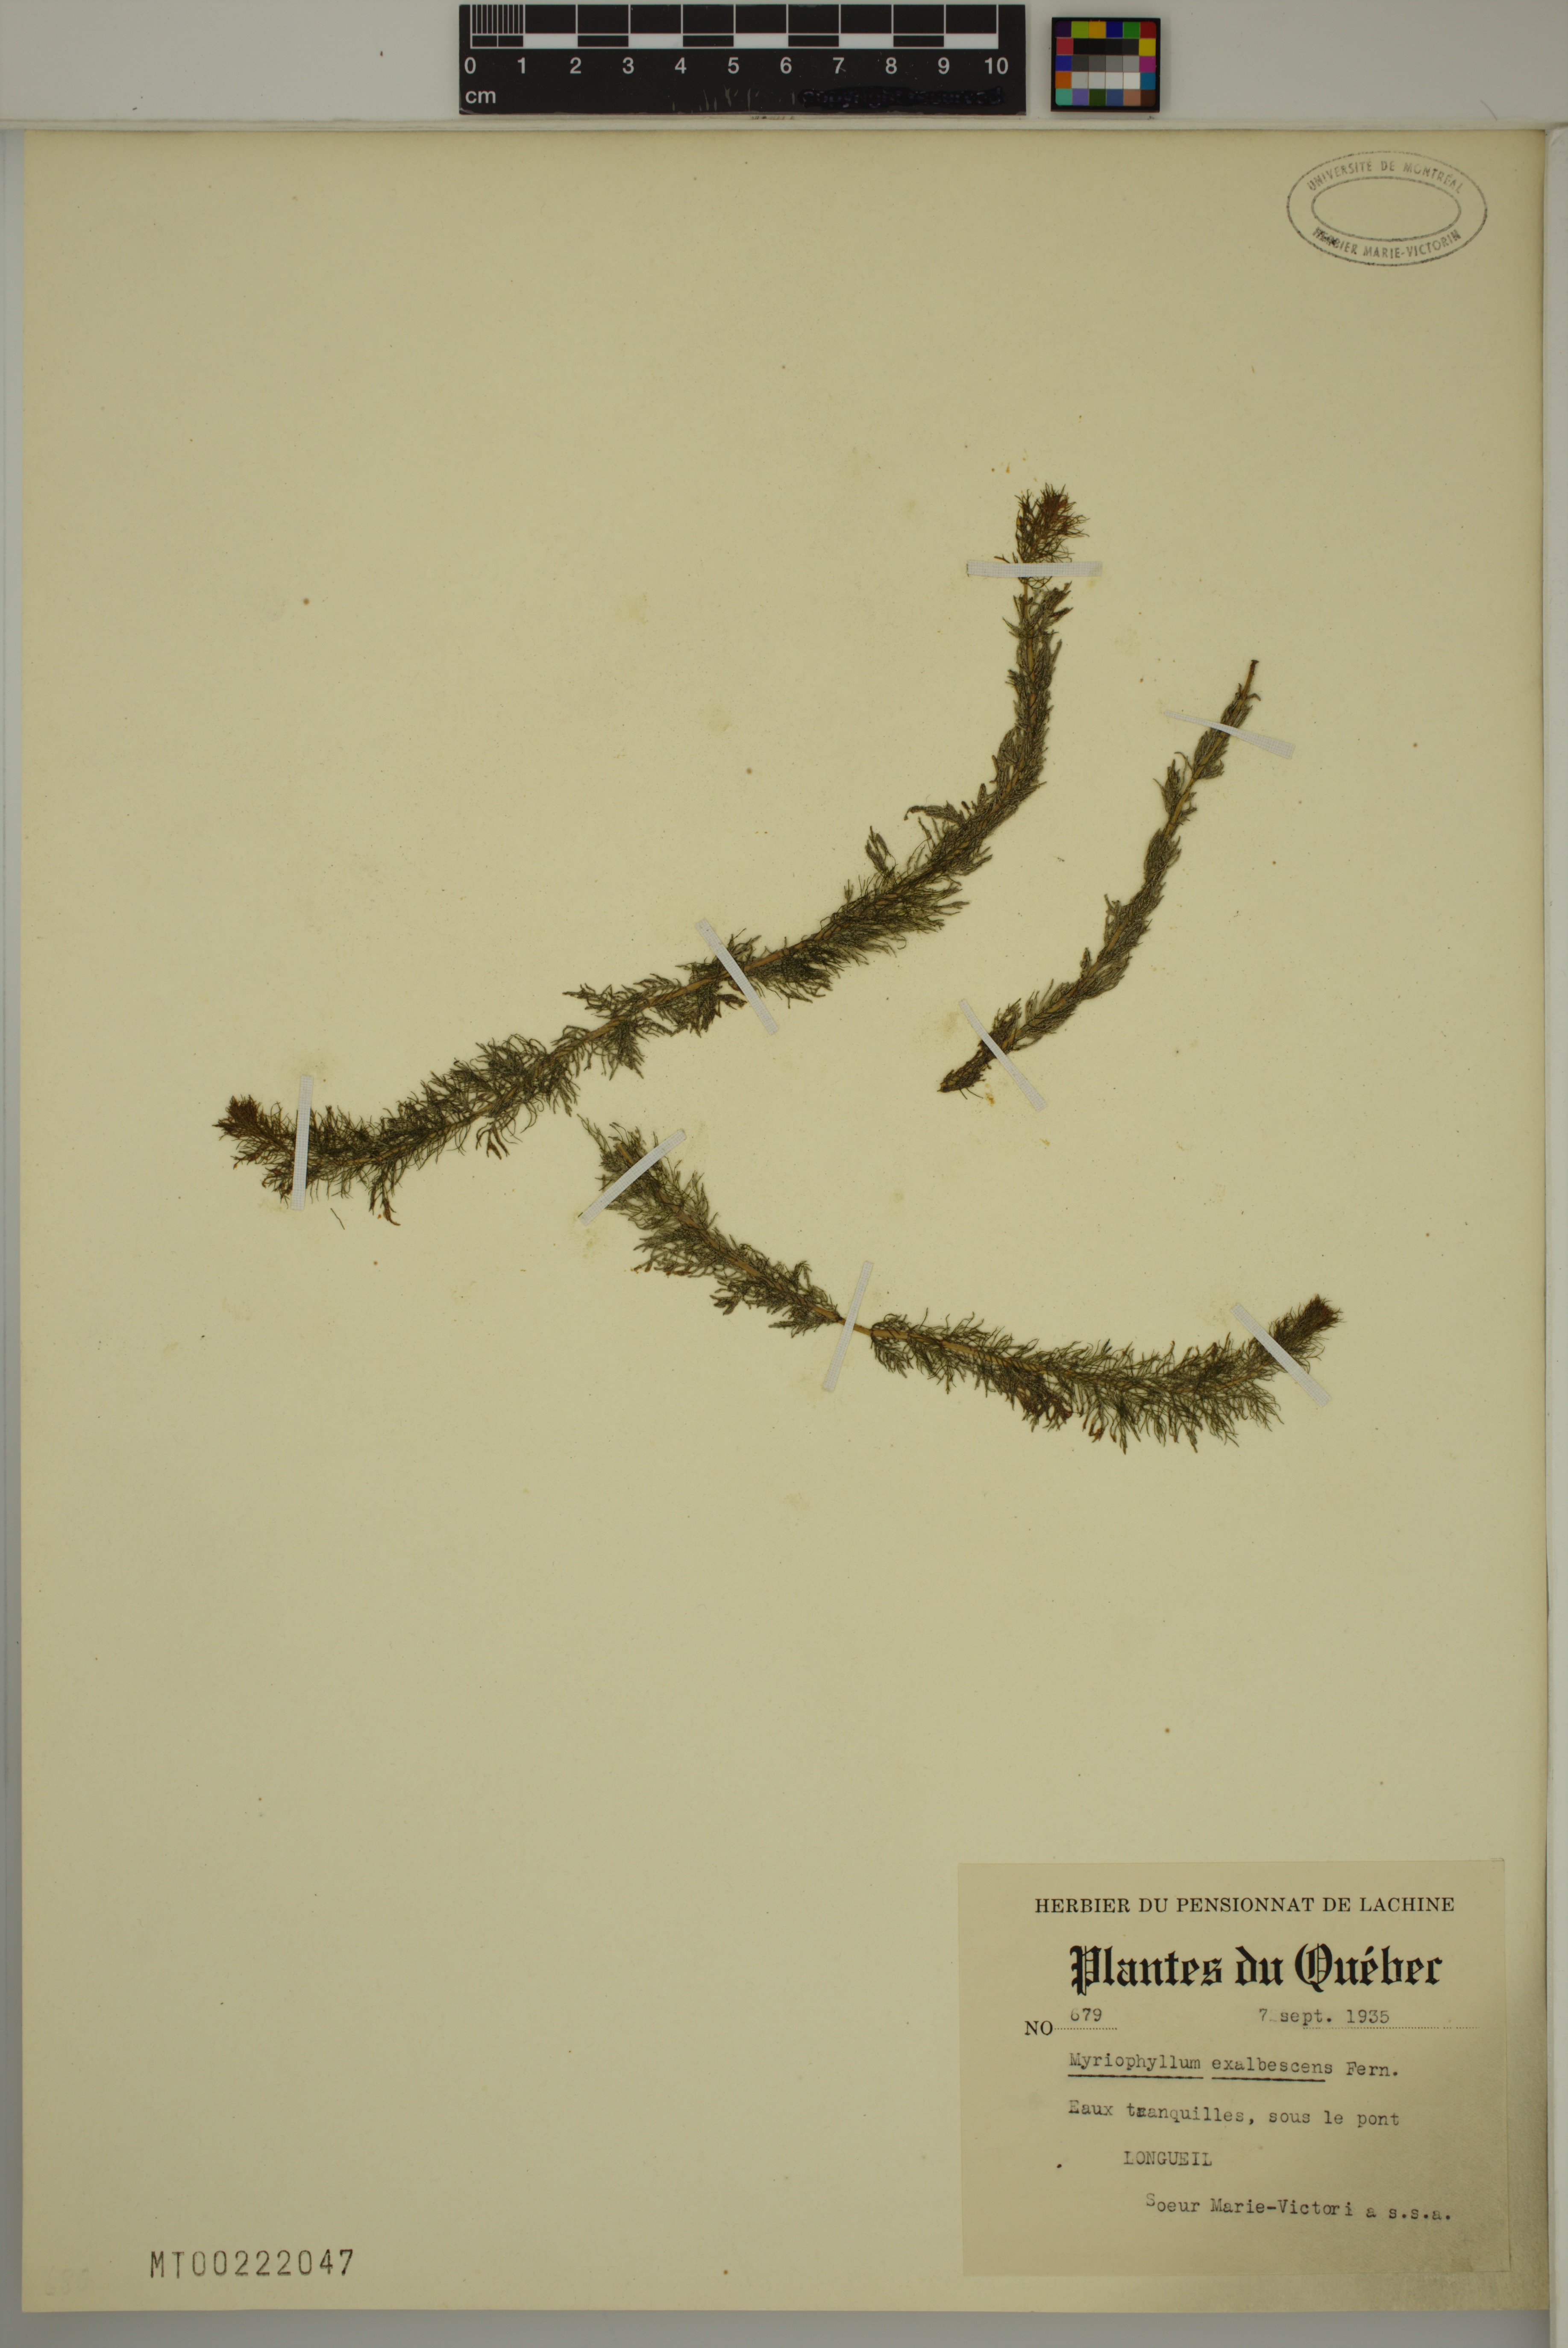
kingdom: Plantae
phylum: Tracheophyta
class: Magnoliopsida
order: Saxifragales
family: Haloragaceae
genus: Myriophyllum
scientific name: Myriophyllum sibiricum
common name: Siberian water-milfoil
